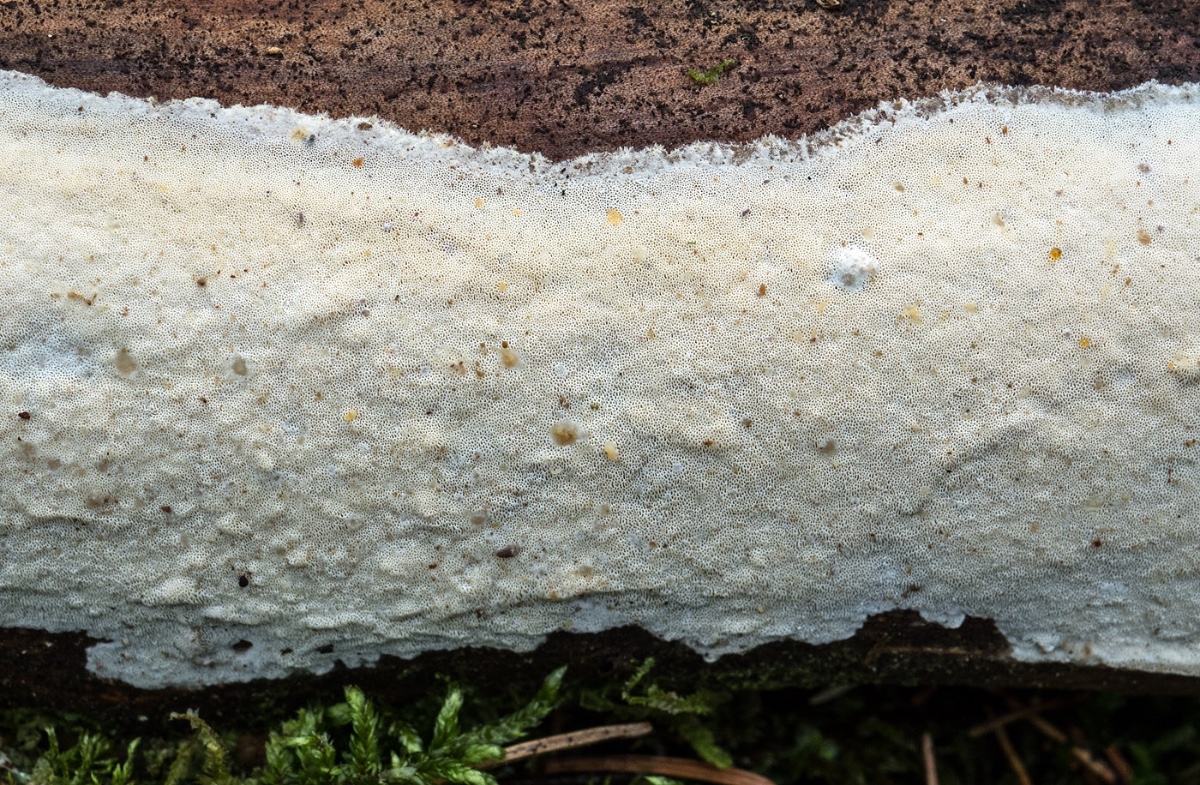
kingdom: Fungi
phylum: Basidiomycota
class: Agaricomycetes
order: Polyporales
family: Incrustoporiaceae
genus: Incrustoporia
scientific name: Incrustoporia biguttulata
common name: tvedråbet krystalporesvamp
